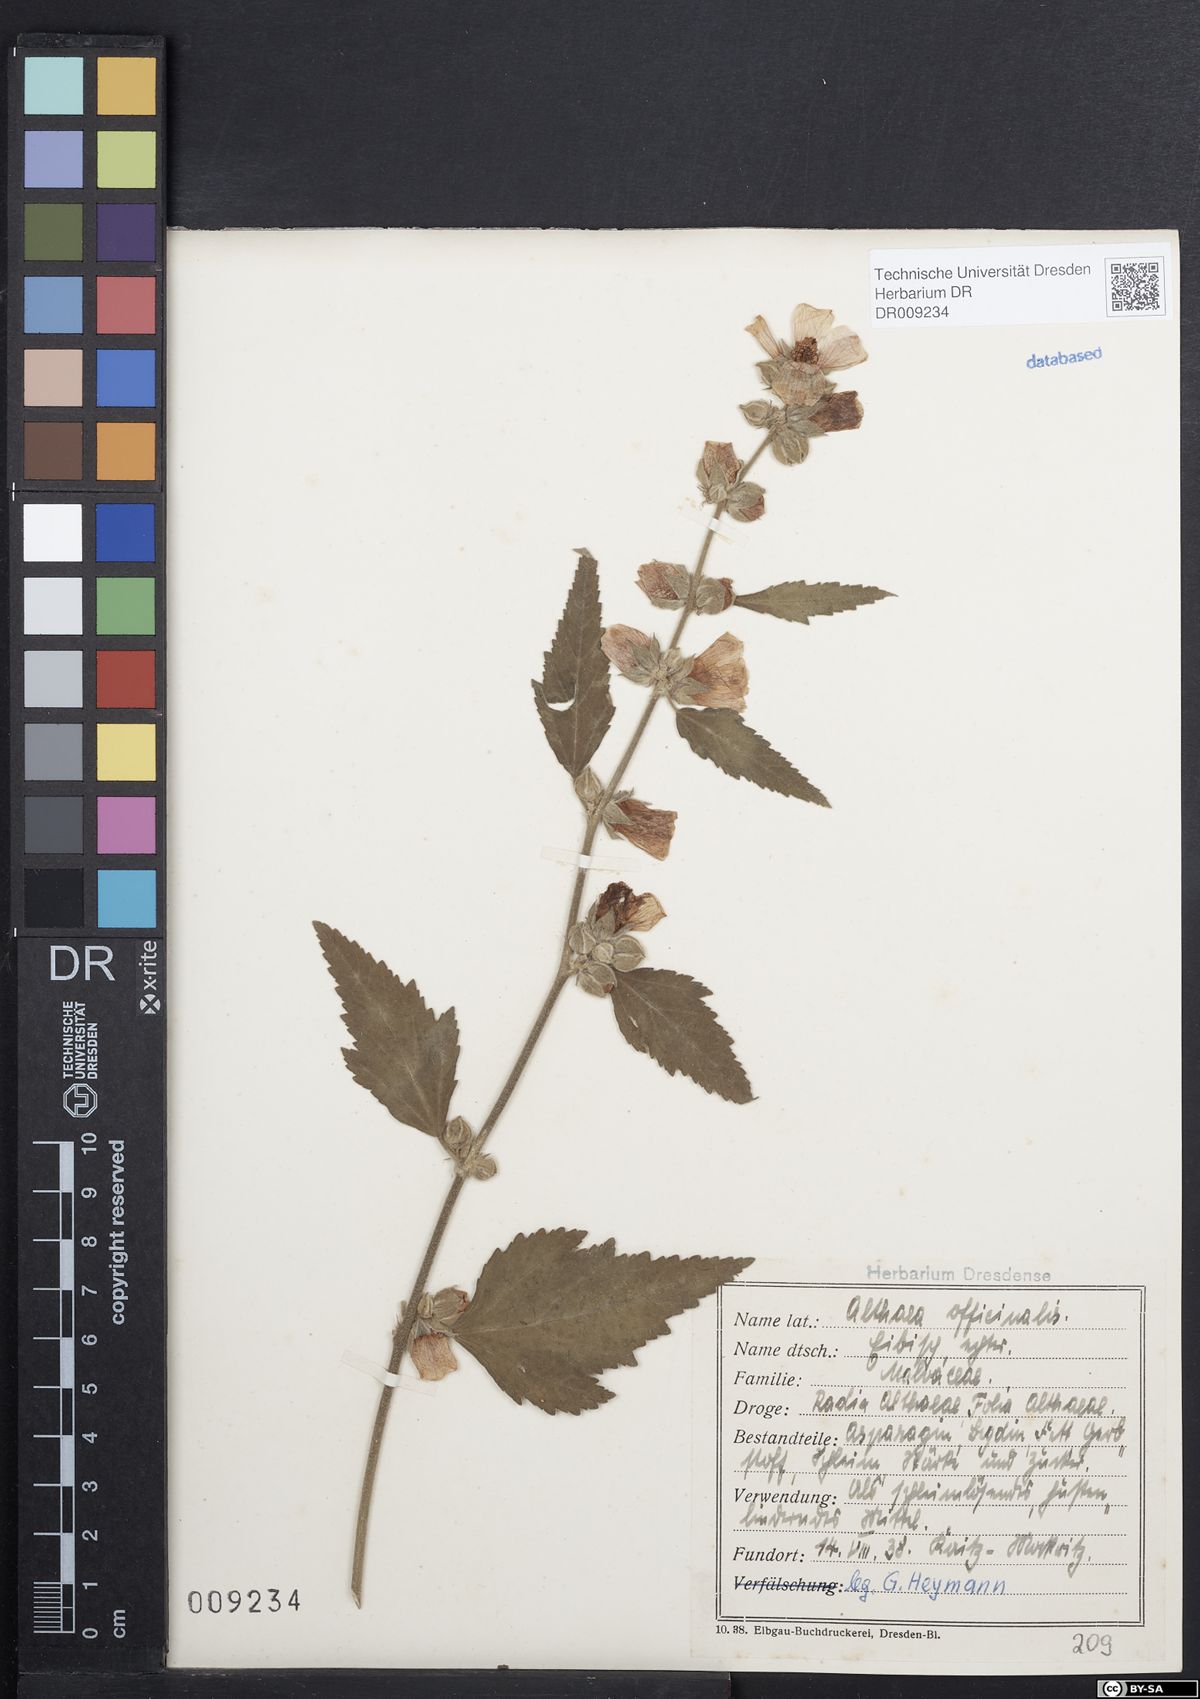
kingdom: Plantae
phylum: Tracheophyta
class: Magnoliopsida
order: Malvales
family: Malvaceae
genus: Althaea
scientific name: Althaea officinalis
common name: Marsh-mallow
